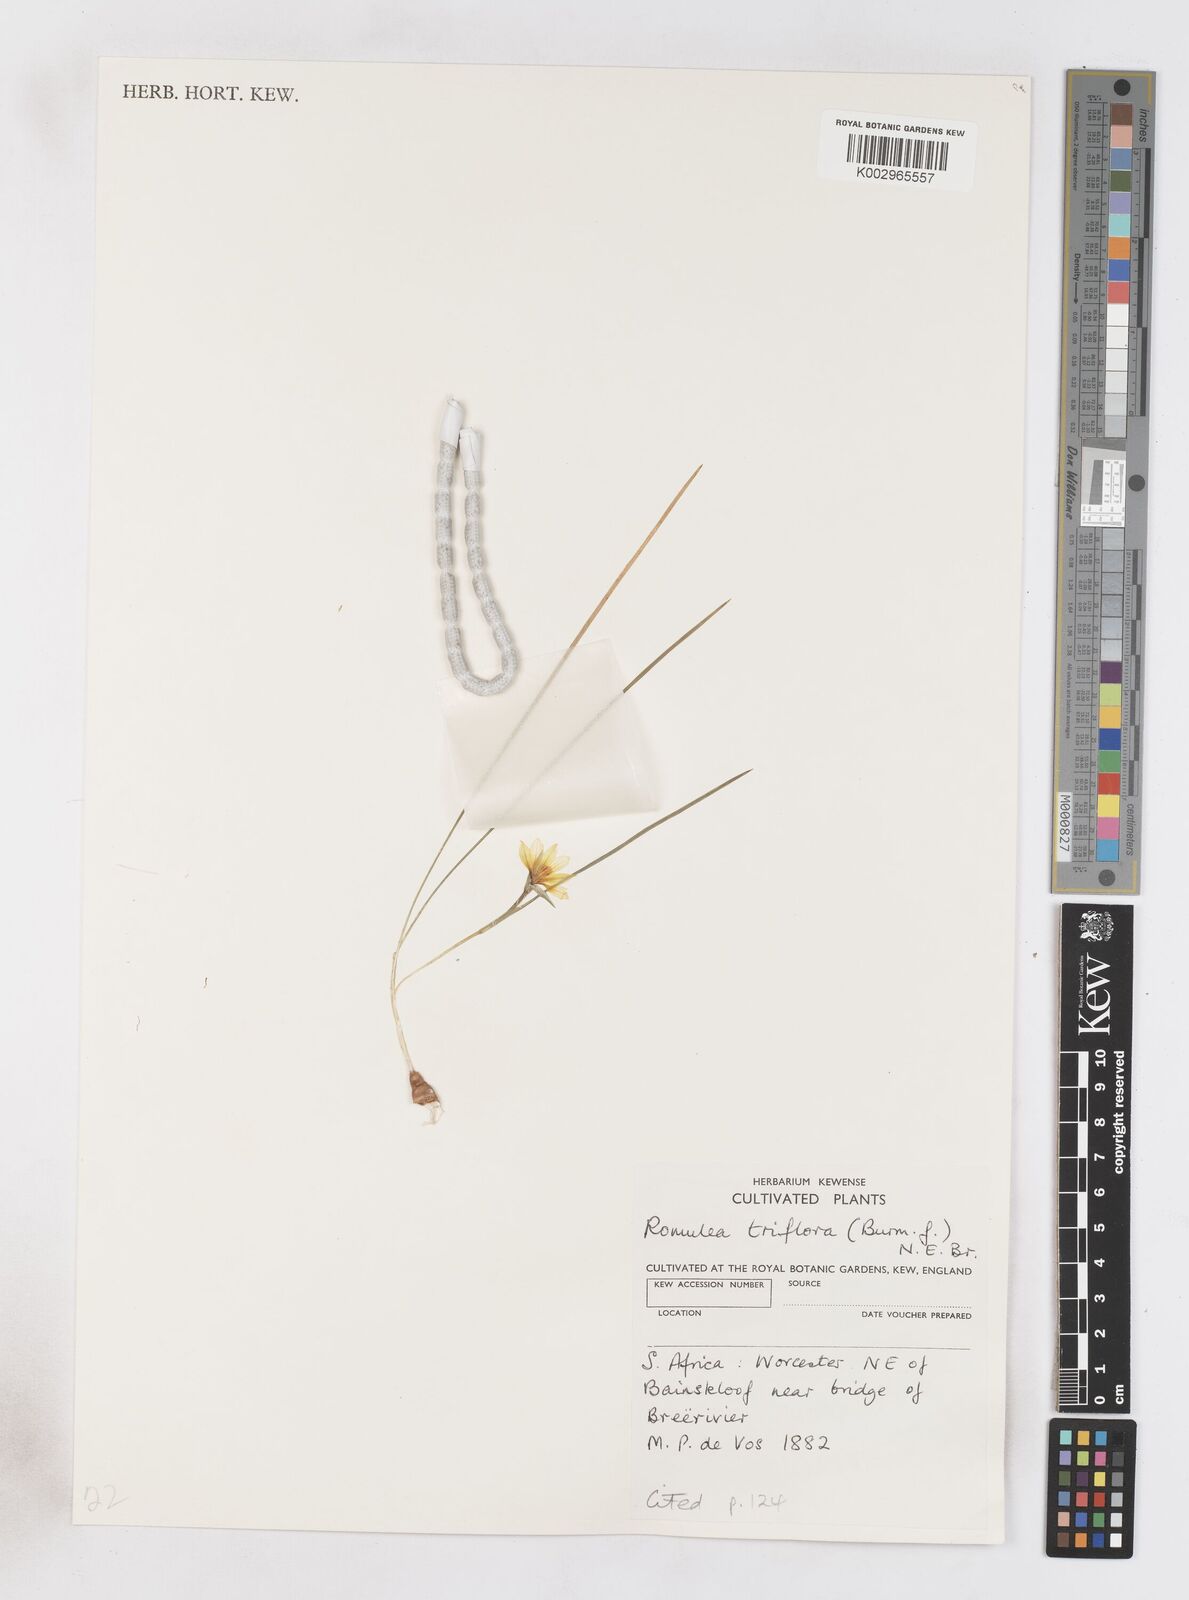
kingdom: Plantae
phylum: Tracheophyta
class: Liliopsida
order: Asparagales
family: Iridaceae
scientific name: Iridaceae
